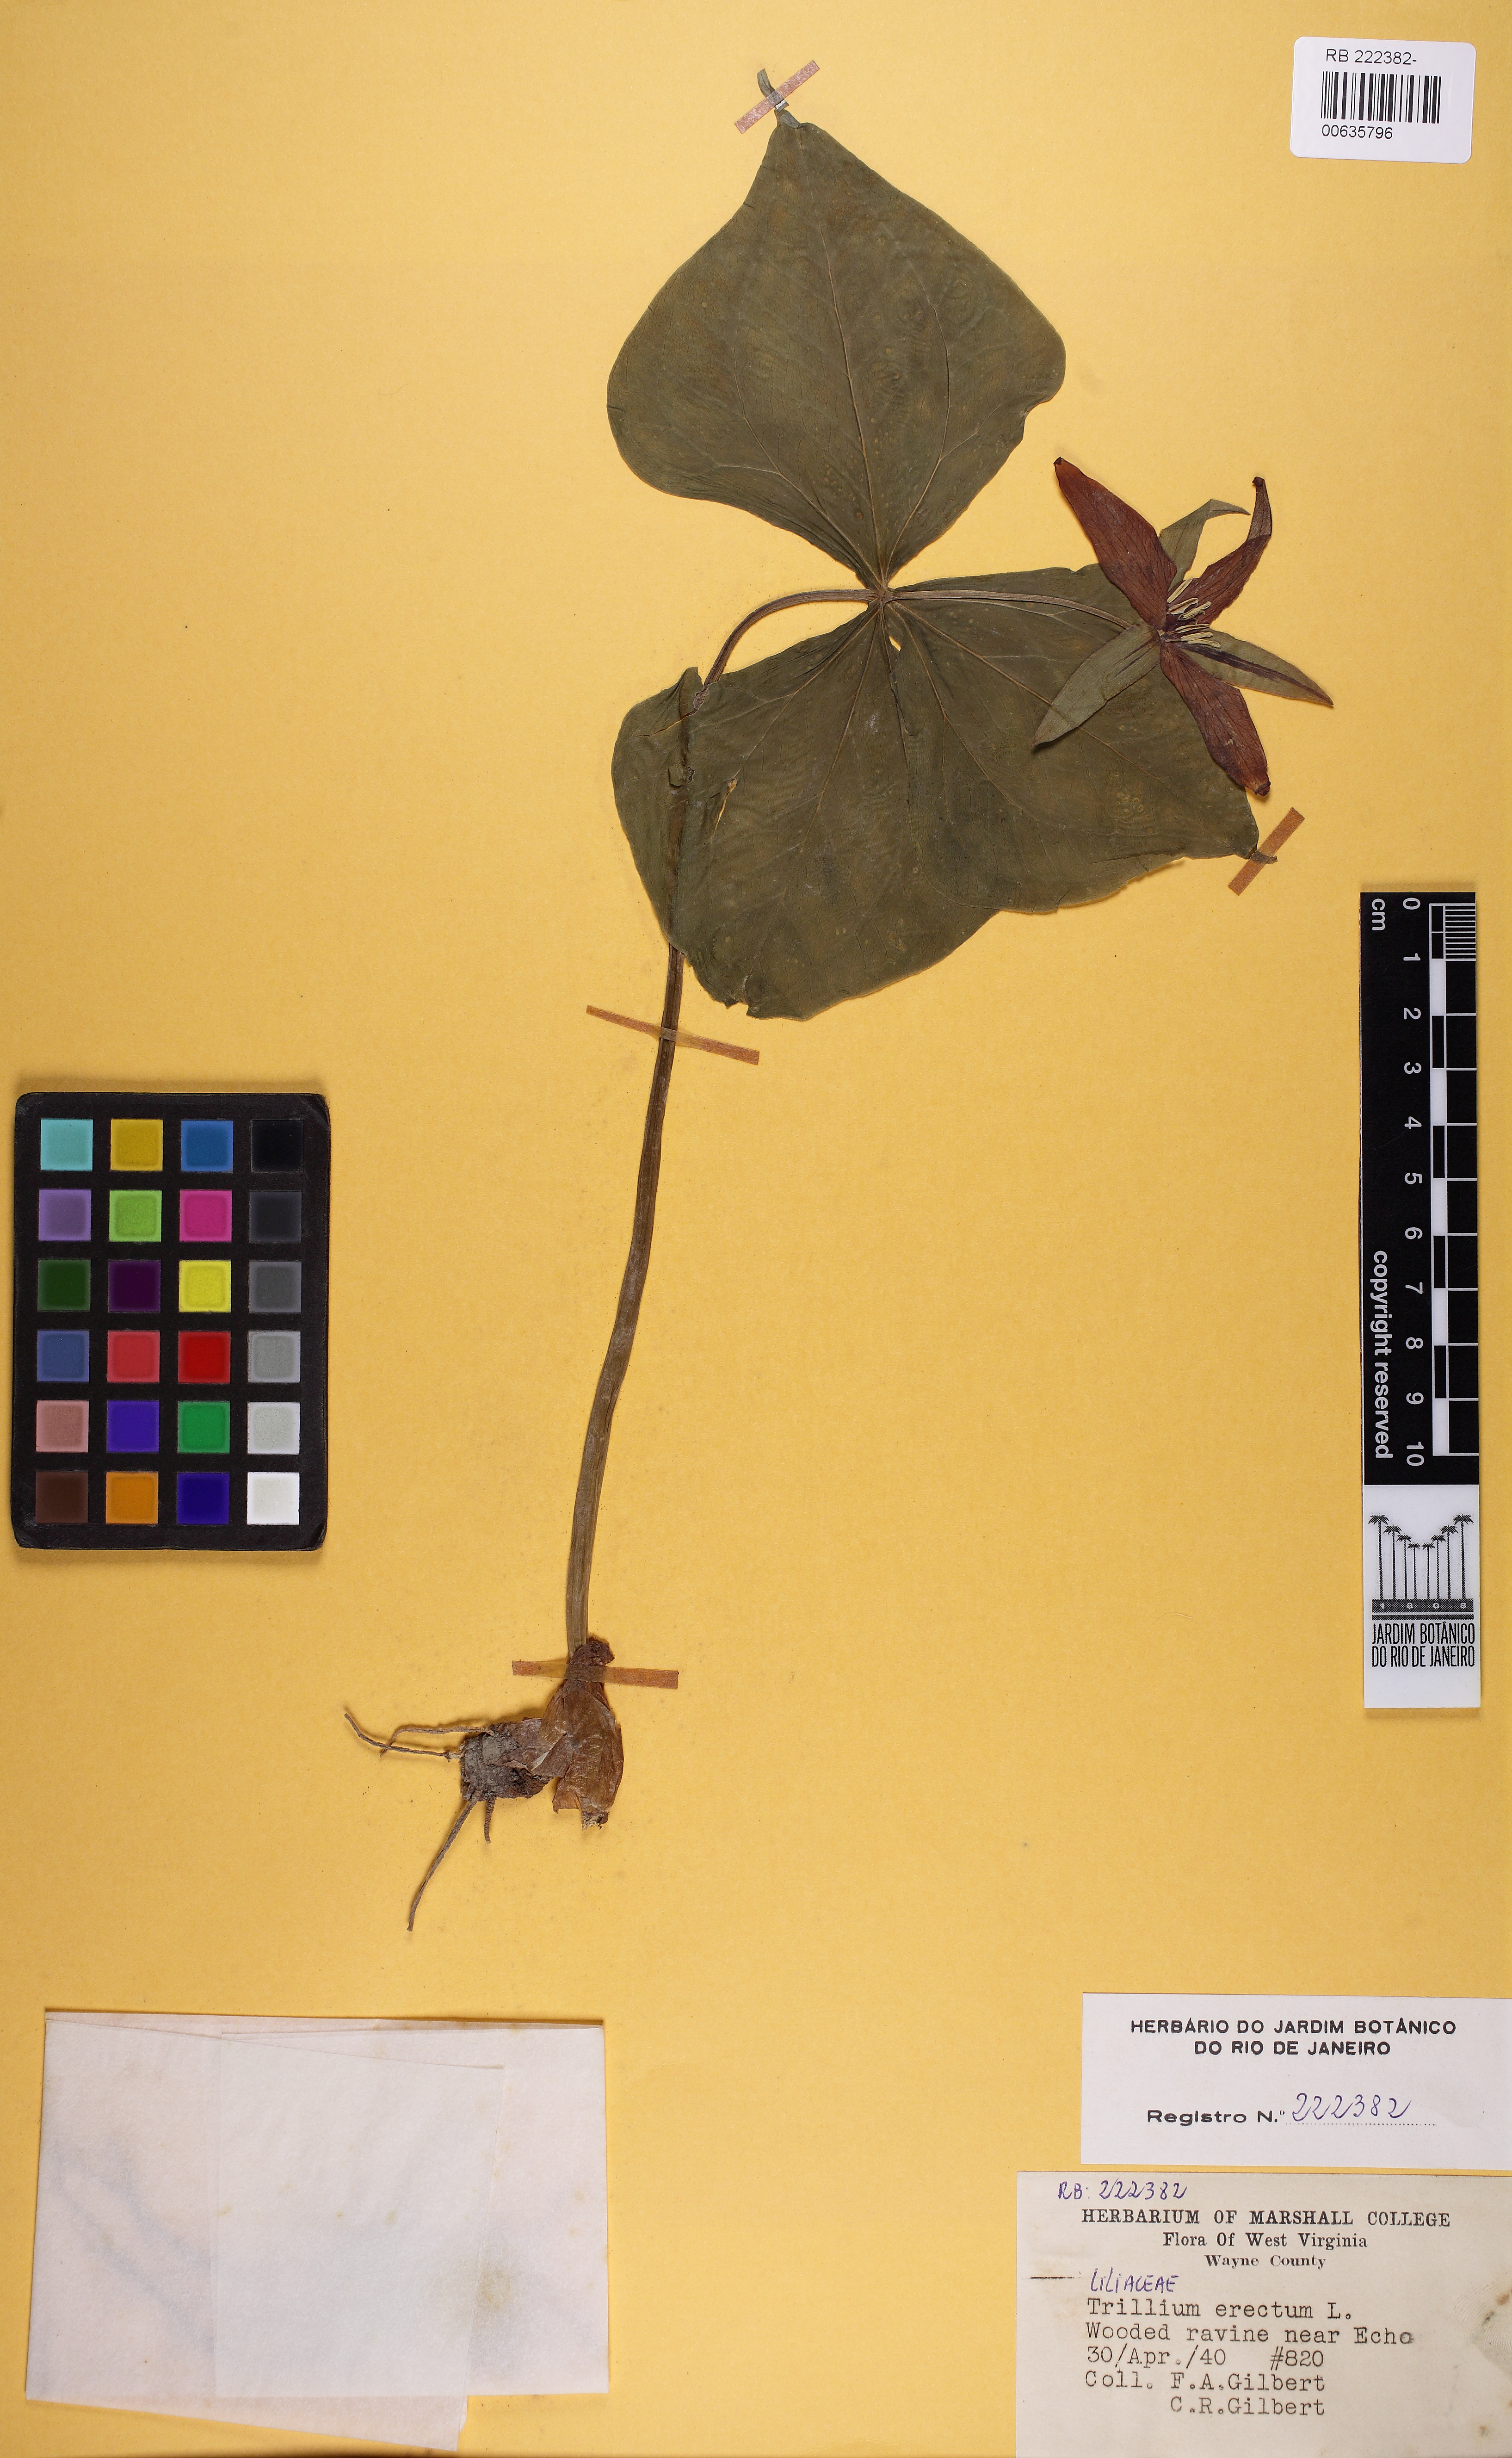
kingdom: Plantae
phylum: Tracheophyta
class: Liliopsida
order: Liliales
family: Melanthiaceae
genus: Trillium
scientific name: Trillium erectum
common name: Purple trillium
